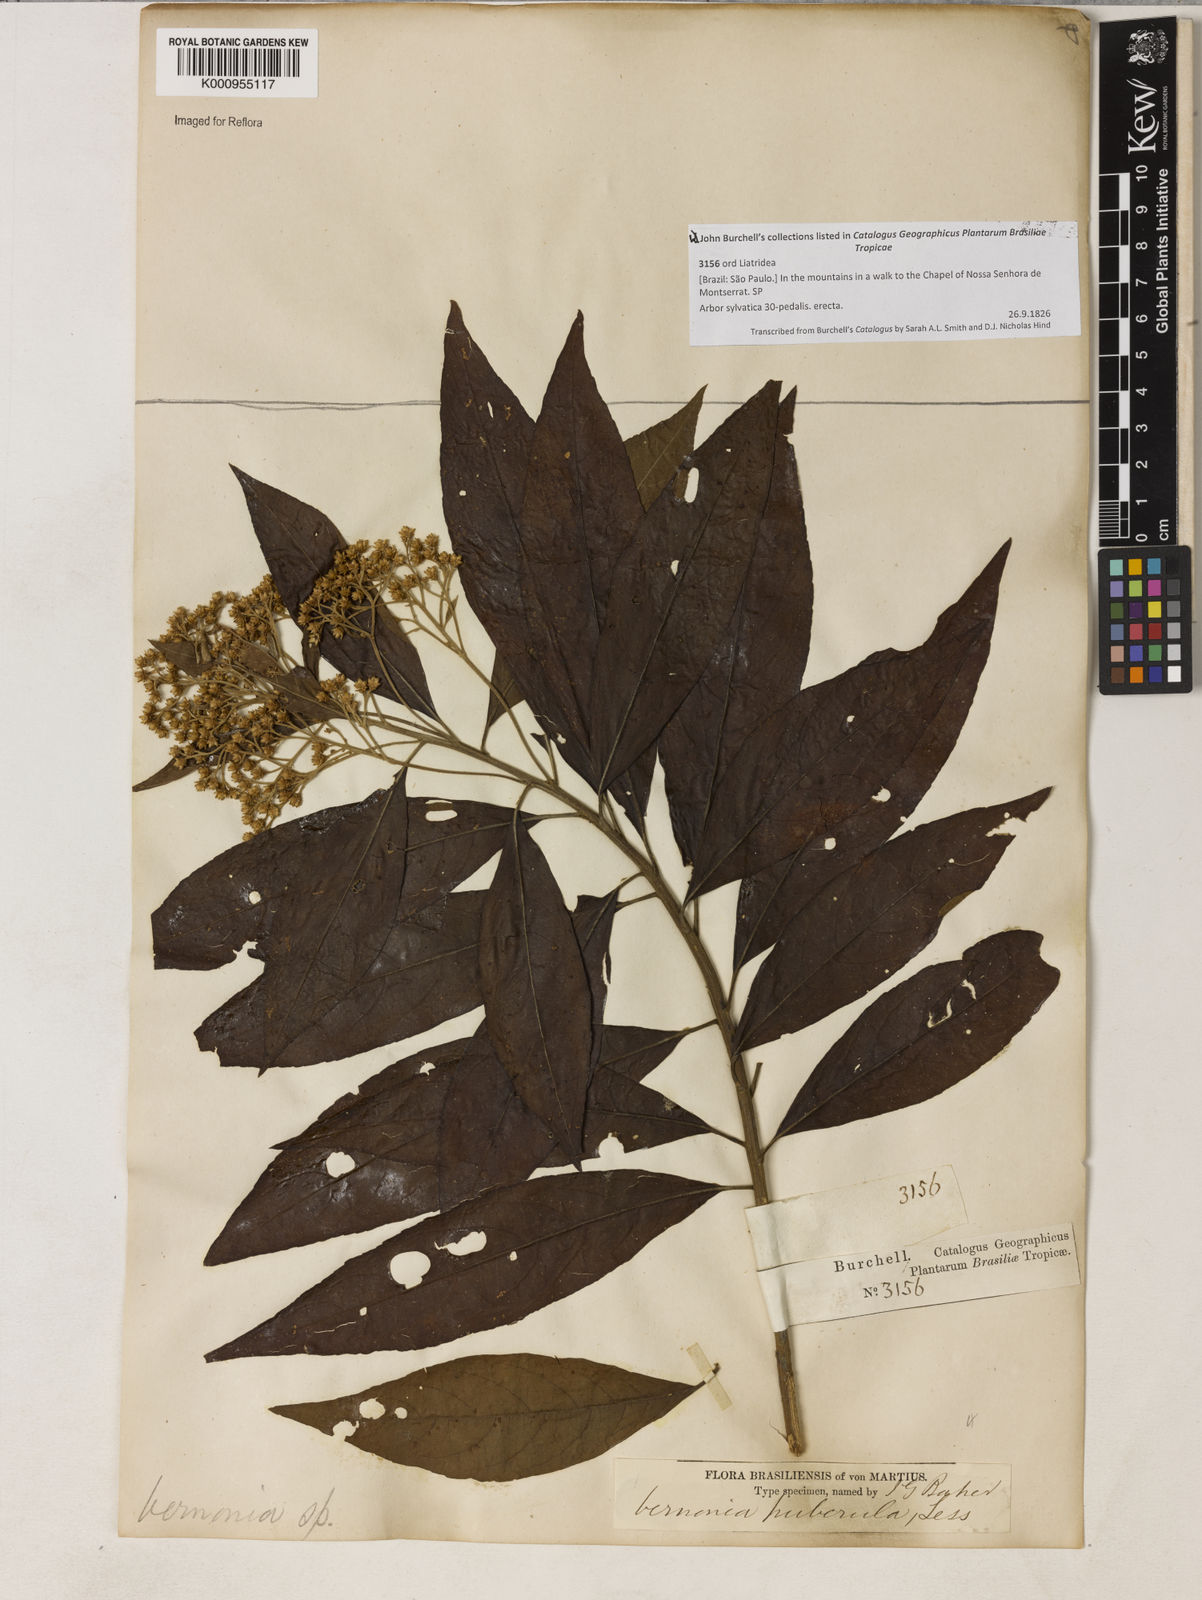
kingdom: Plantae
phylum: Tracheophyta
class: Magnoliopsida
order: Asterales
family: Asteraceae
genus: Vernonanthura
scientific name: Vernonanthura puberula
